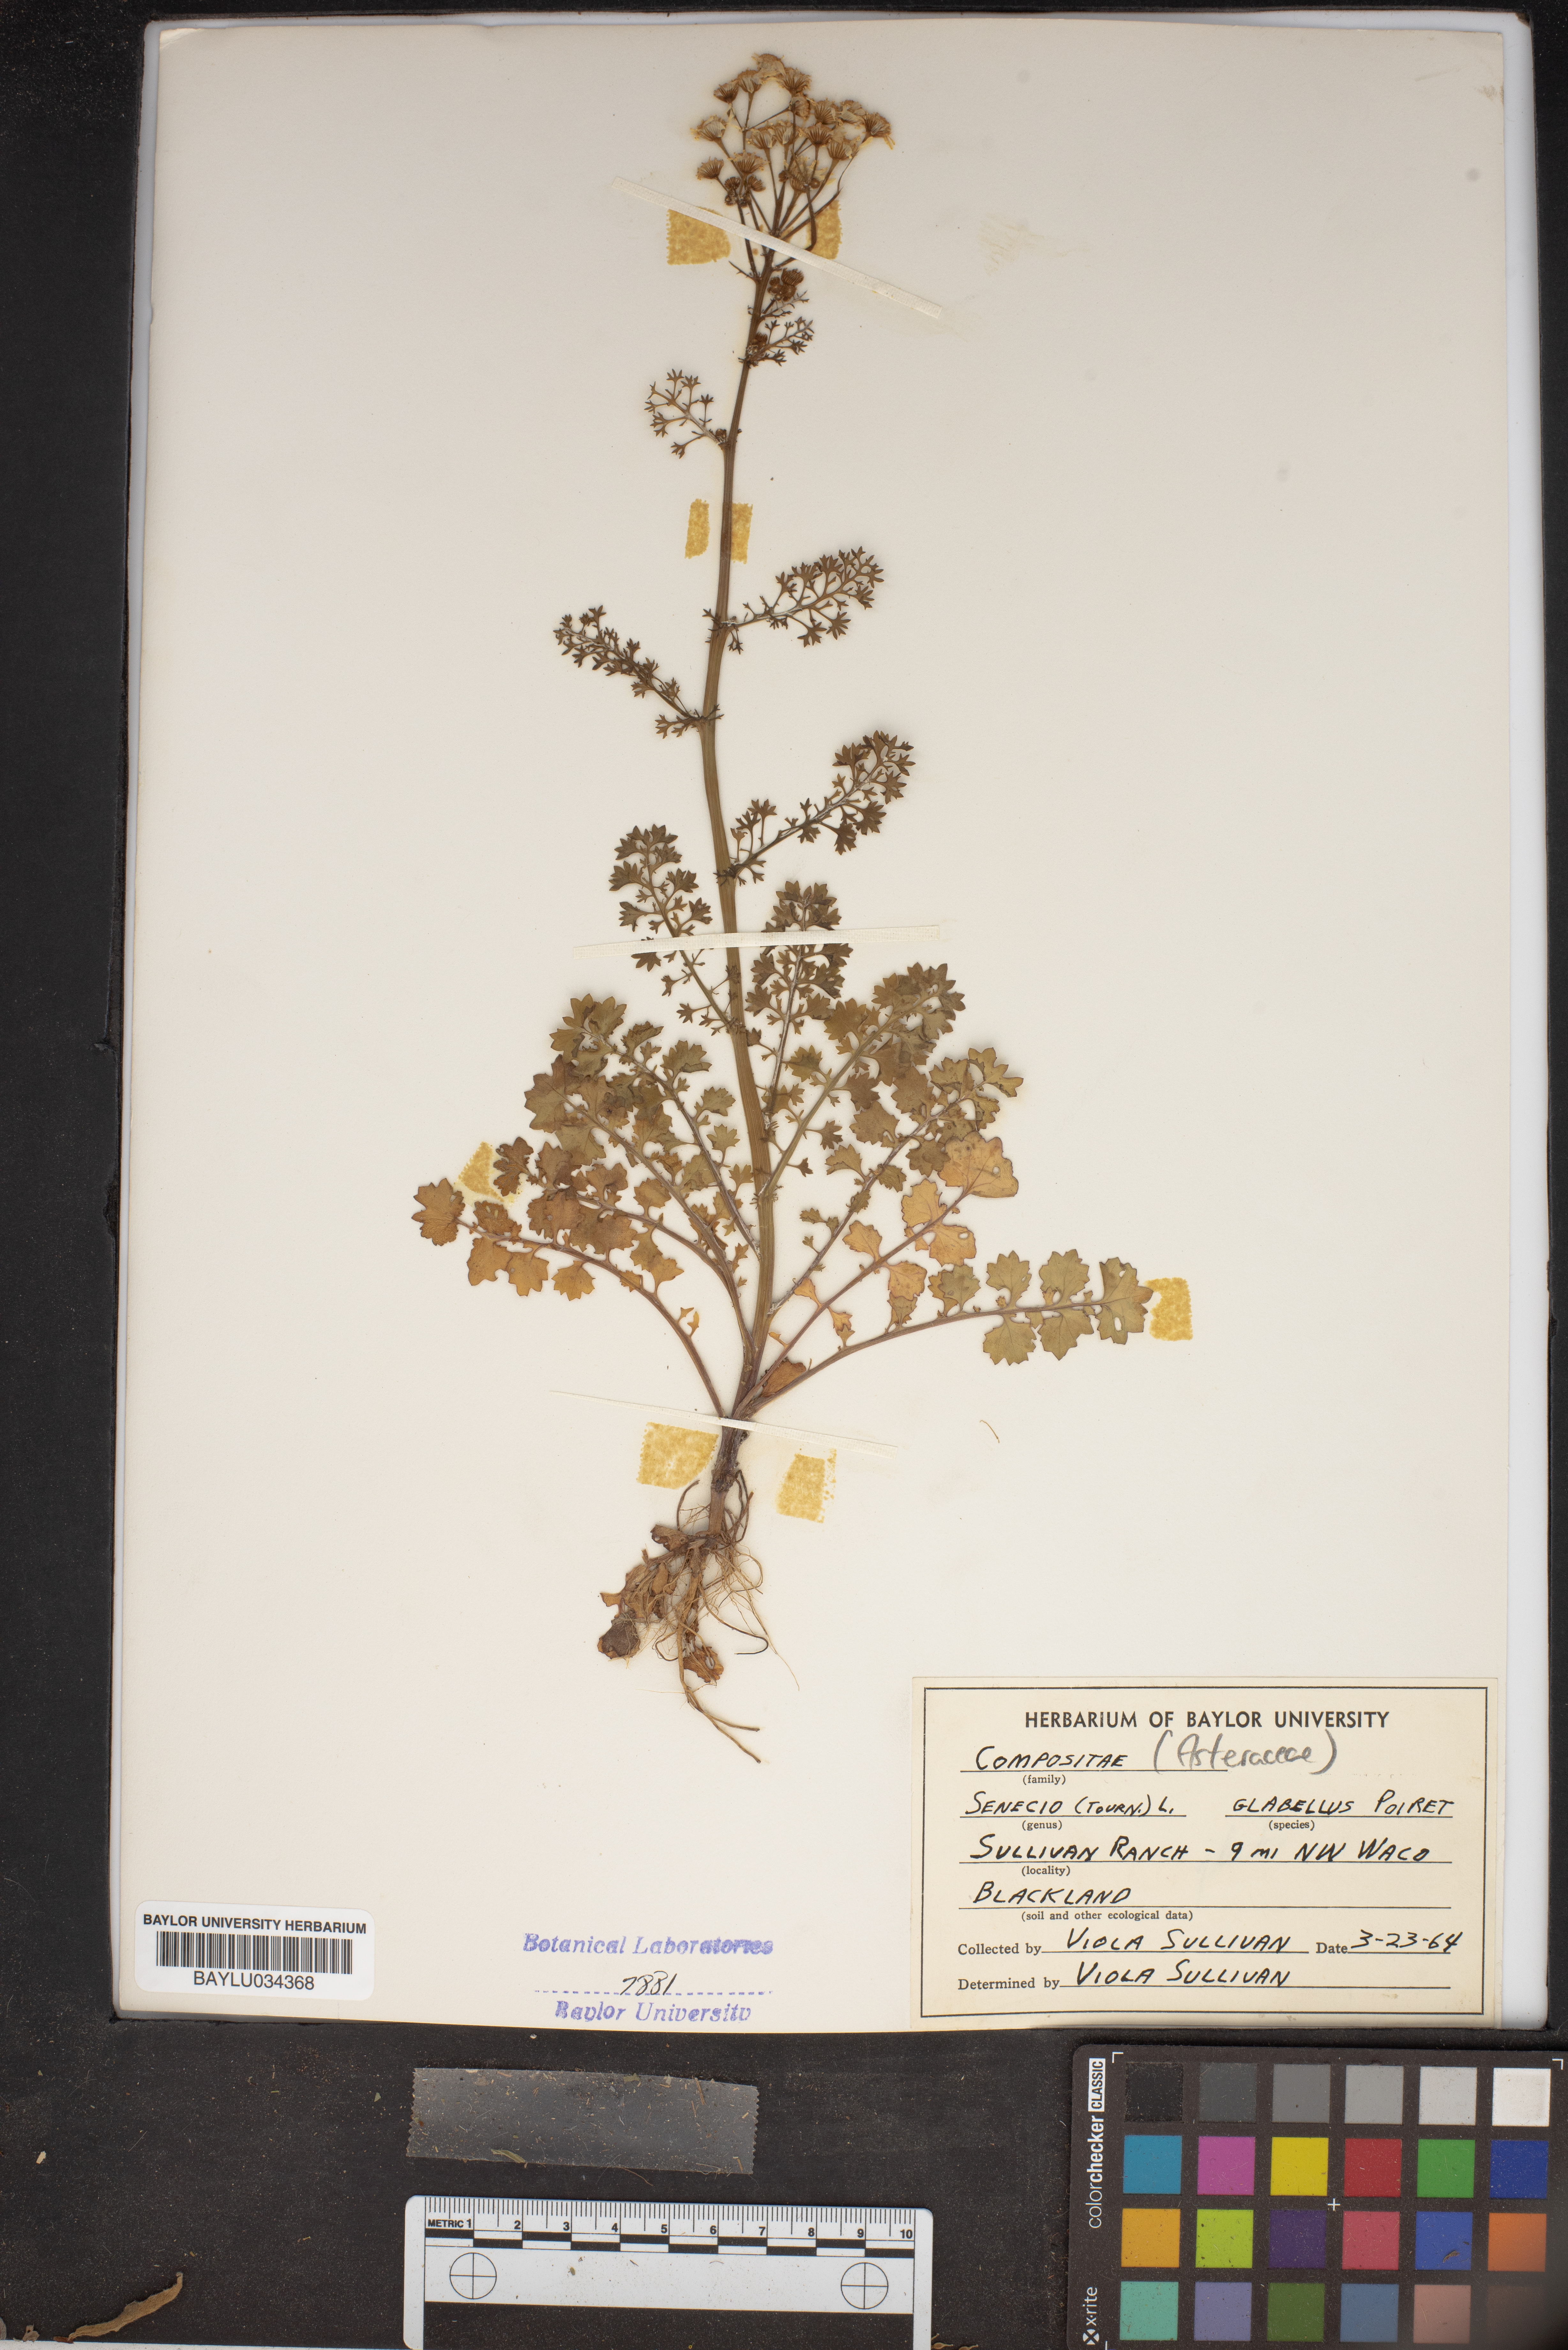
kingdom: Plantae
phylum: Tracheophyta
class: Magnoliopsida
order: Asterales
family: Asteraceae
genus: Tephroseris
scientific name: Tephroseris praticola
